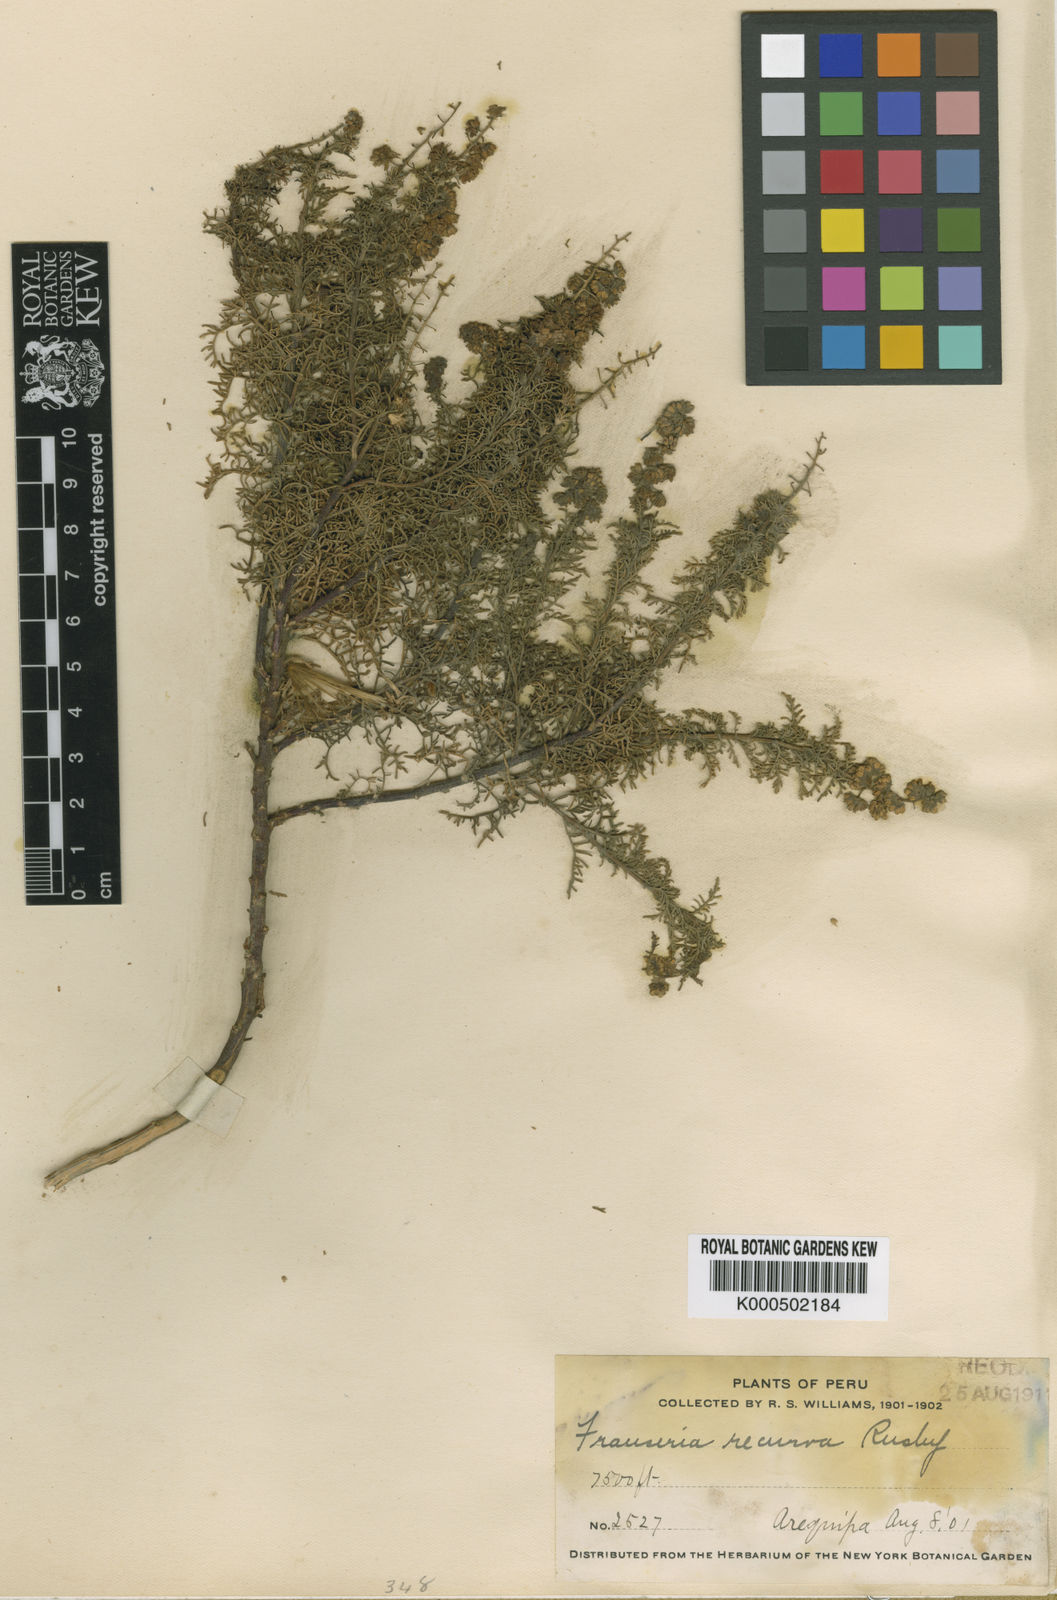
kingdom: Plantae
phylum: Tracheophyta
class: Magnoliopsida
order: Asterales
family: Asteraceae
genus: Ambrosia
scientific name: Ambrosia
